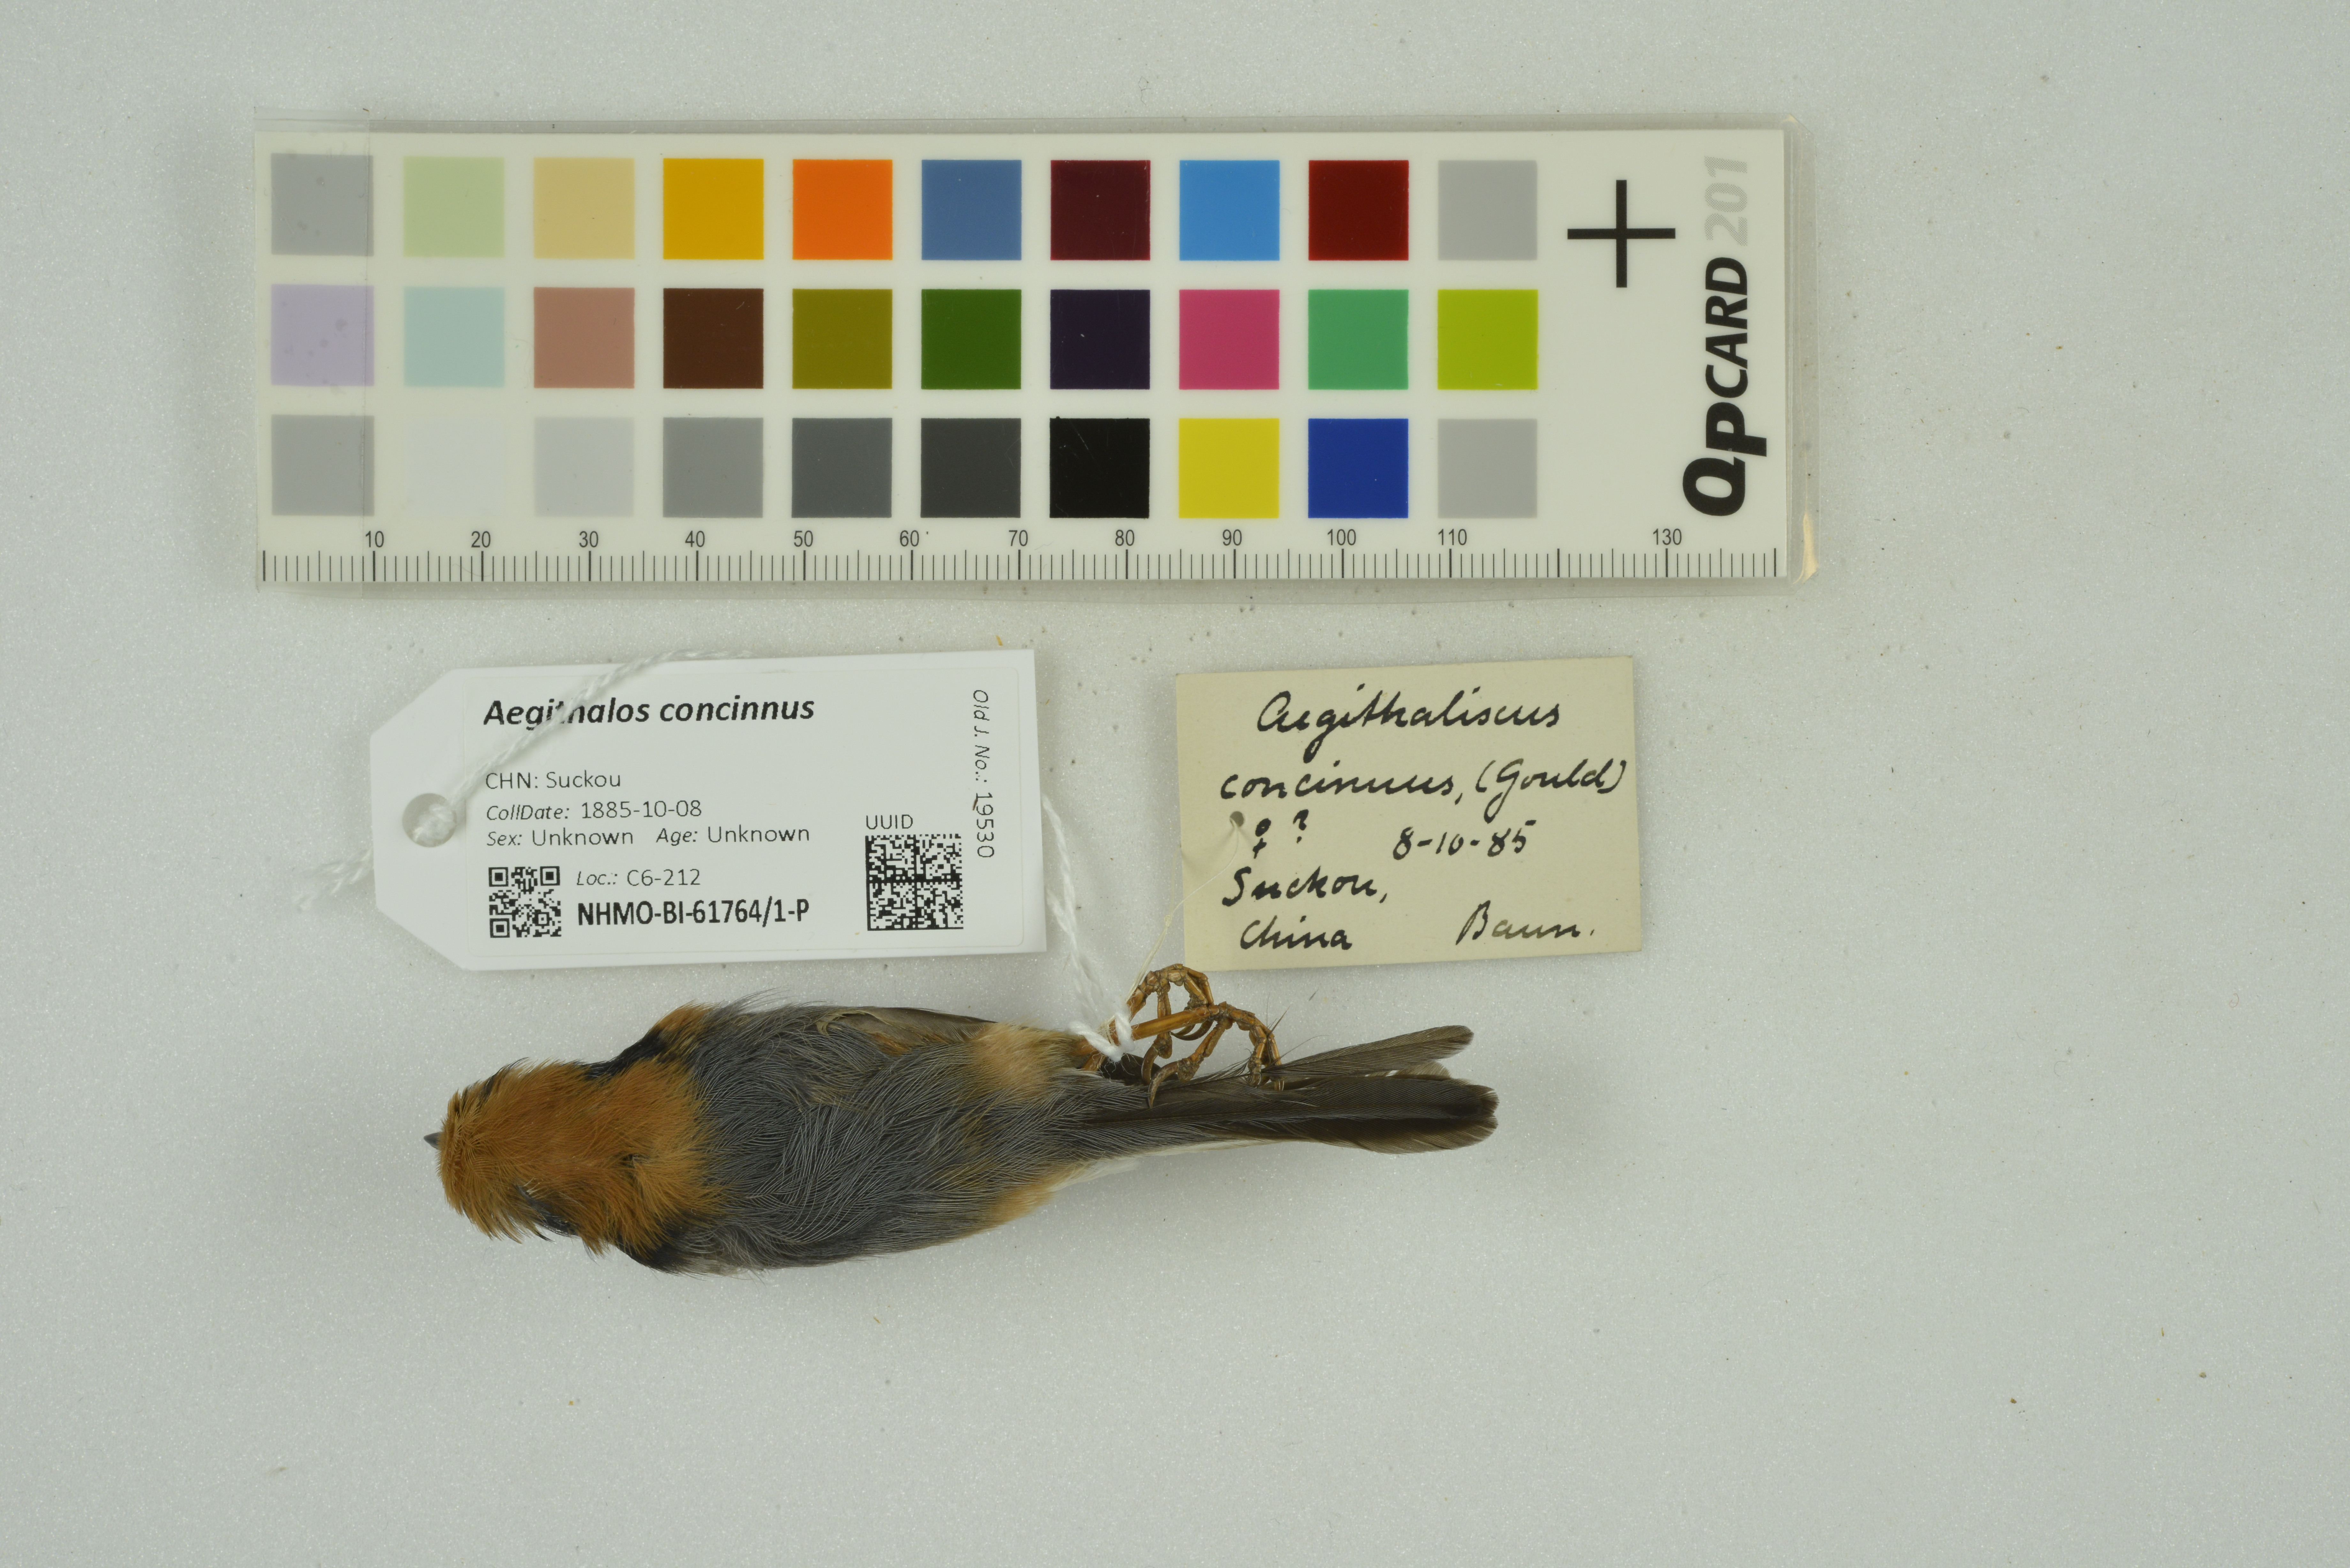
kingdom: Animalia
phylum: Chordata
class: Aves
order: Passeriformes
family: Aegithalidae
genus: Aegithalos
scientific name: Aegithalos concinnus
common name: Black-throated bushtit
